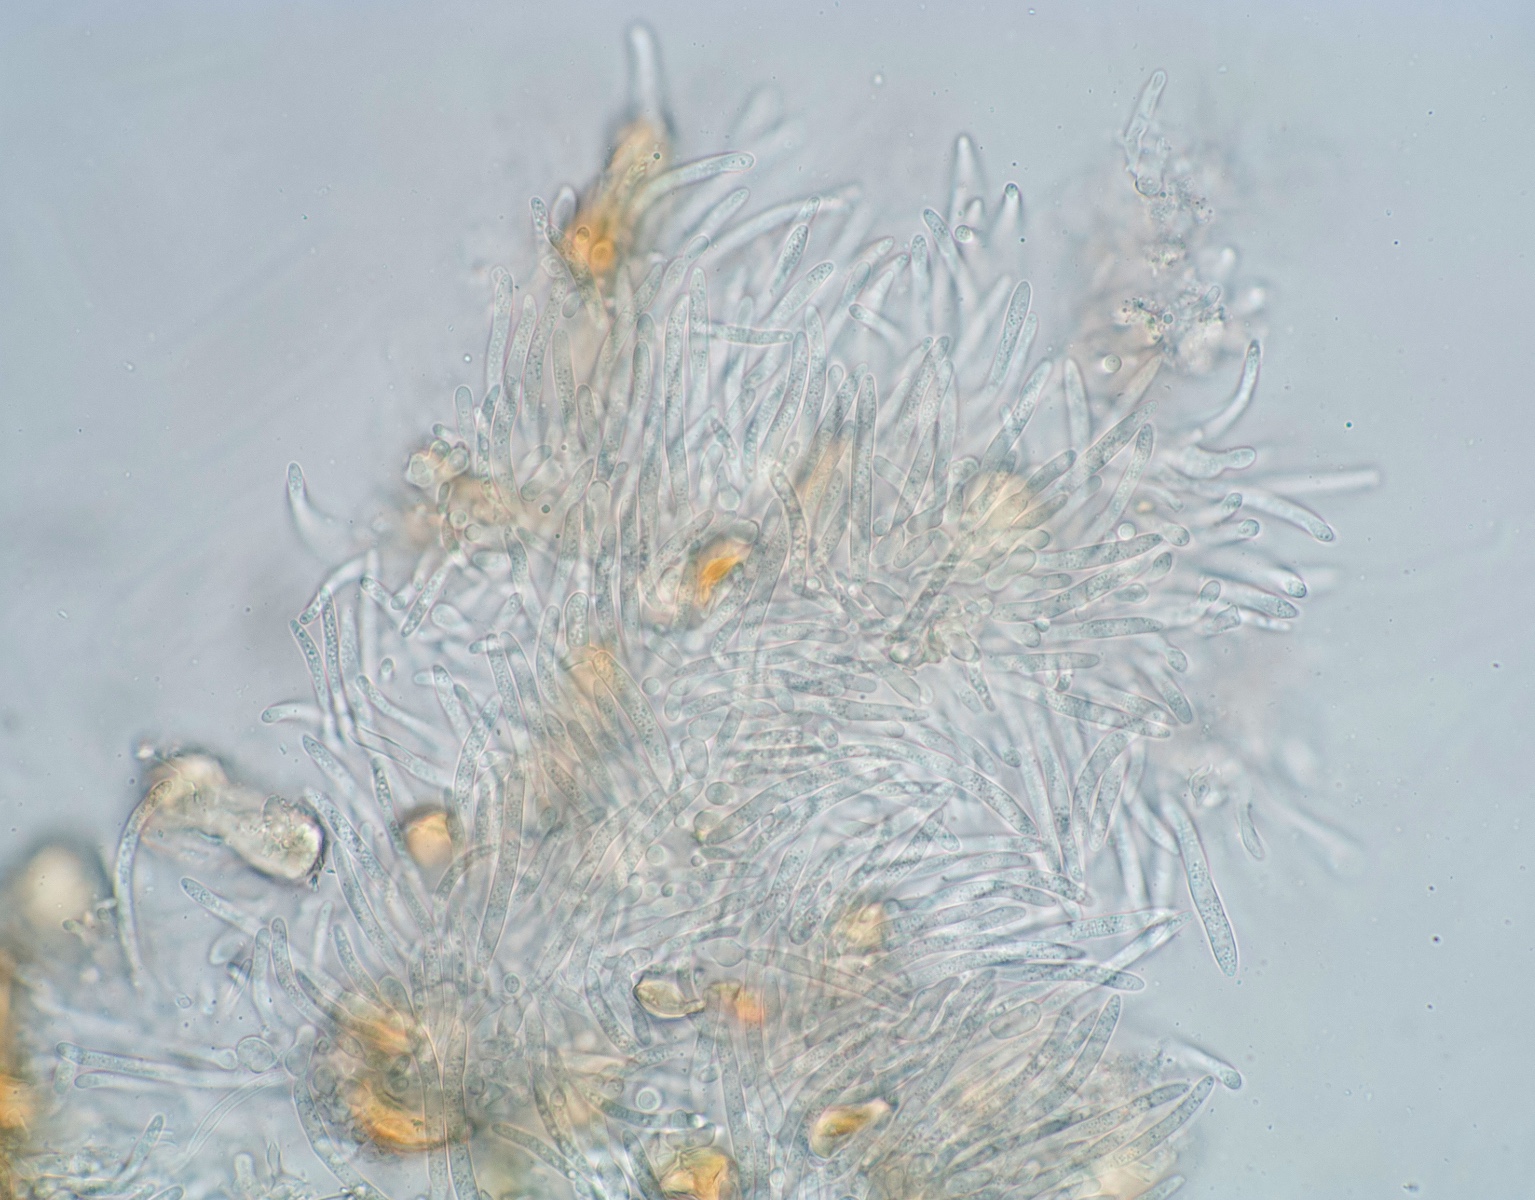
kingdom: Fungi
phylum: Ascomycota
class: Dothideomycetes
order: Mycosphaerellales
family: Mycosphaerellaceae
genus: Stromatoseptoria
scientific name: Stromatoseptoria castaneicola
